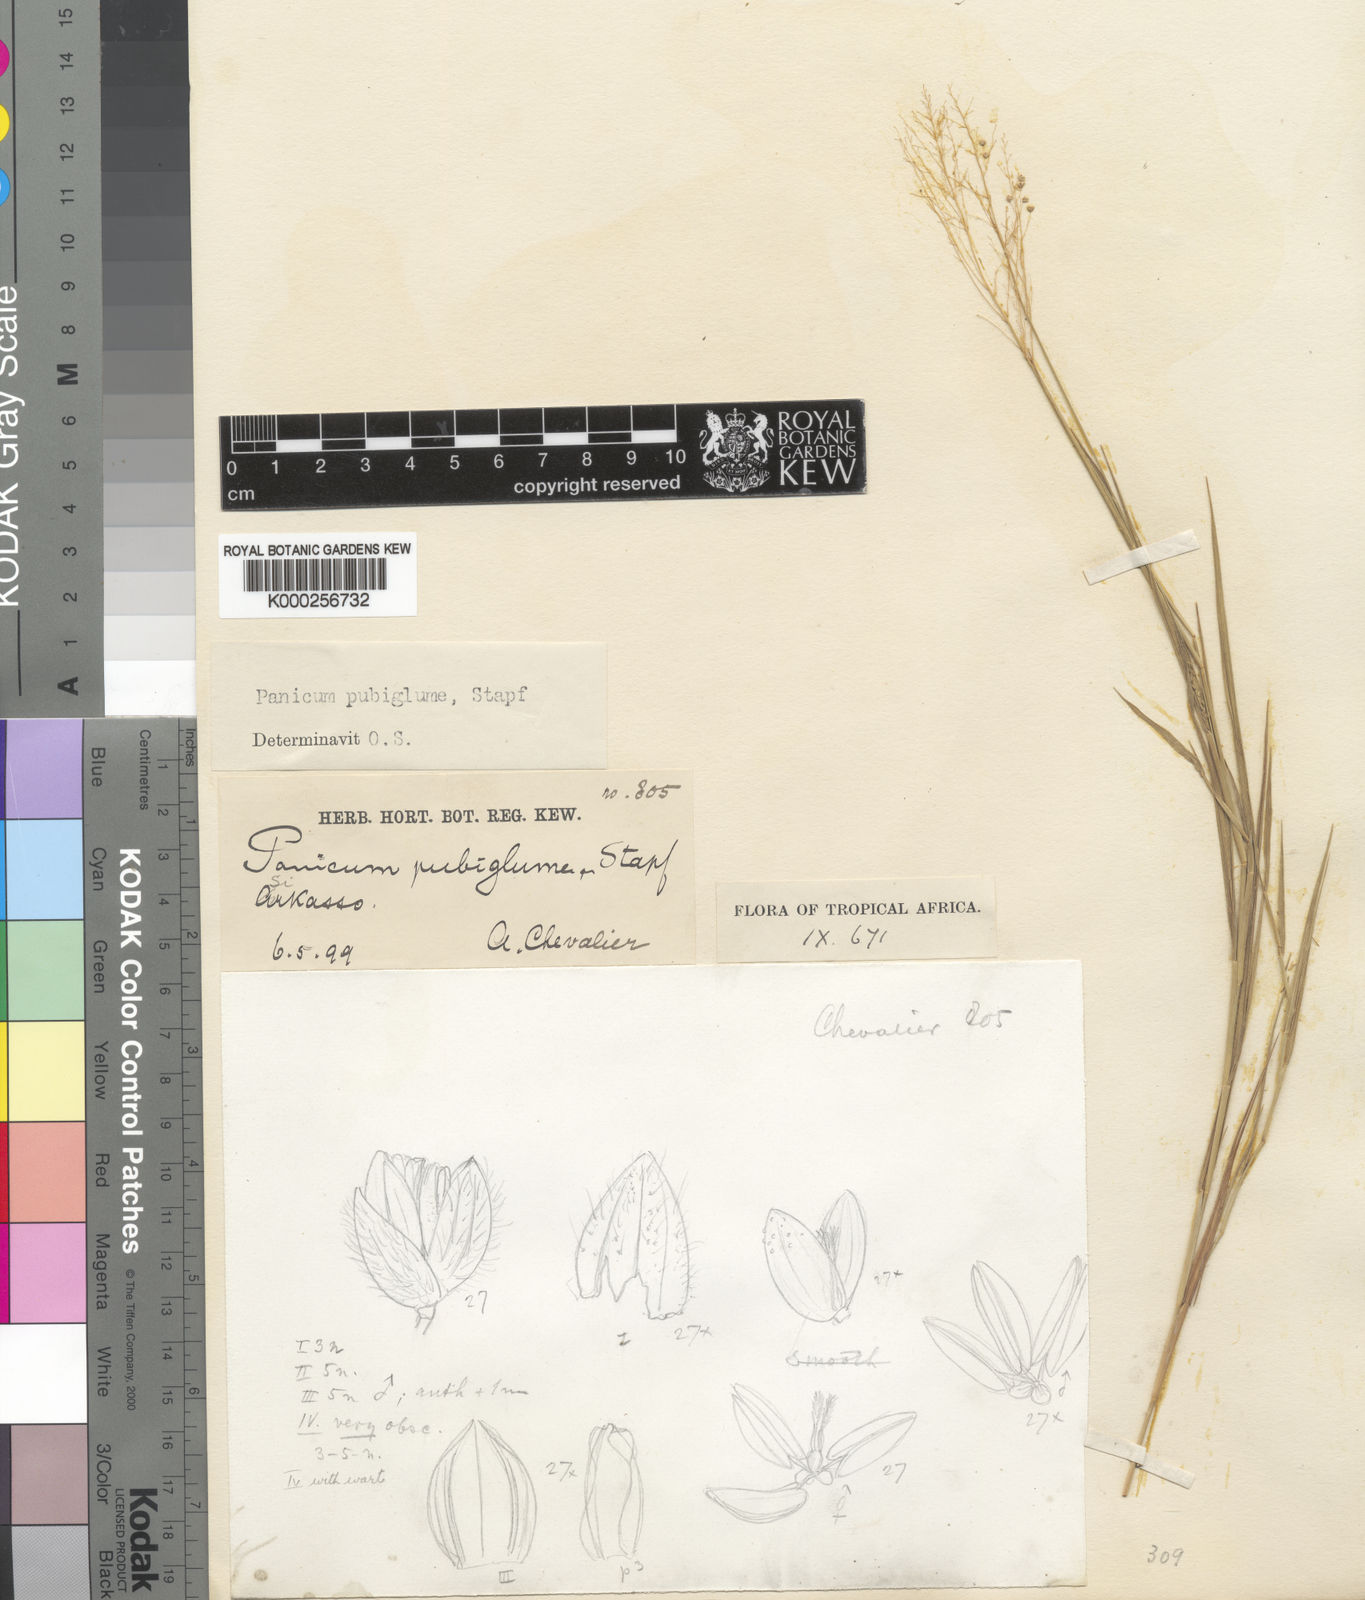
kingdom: Plantae
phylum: Tracheophyta
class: Liliopsida
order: Poales
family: Poaceae
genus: Trichanthecium
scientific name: Trichanthecium brazzavillense
